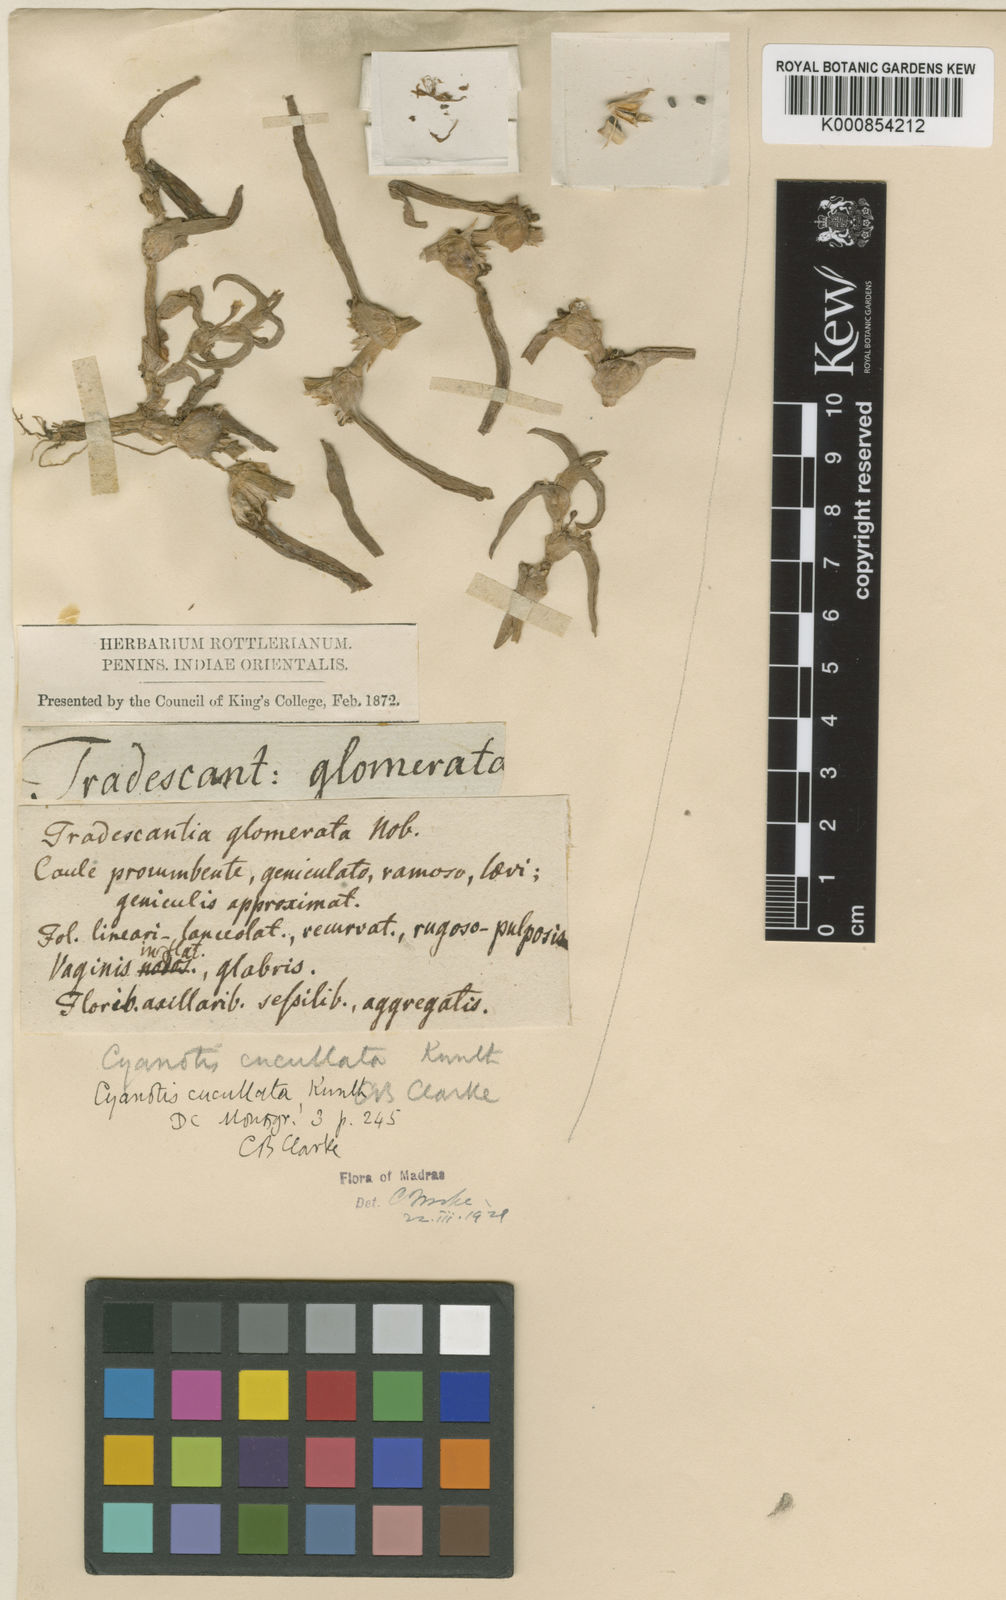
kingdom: Plantae
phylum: Tracheophyta
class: Liliopsida
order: Commelinales
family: Commelinaceae
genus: Cyanotis
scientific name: Cyanotis cucullata
